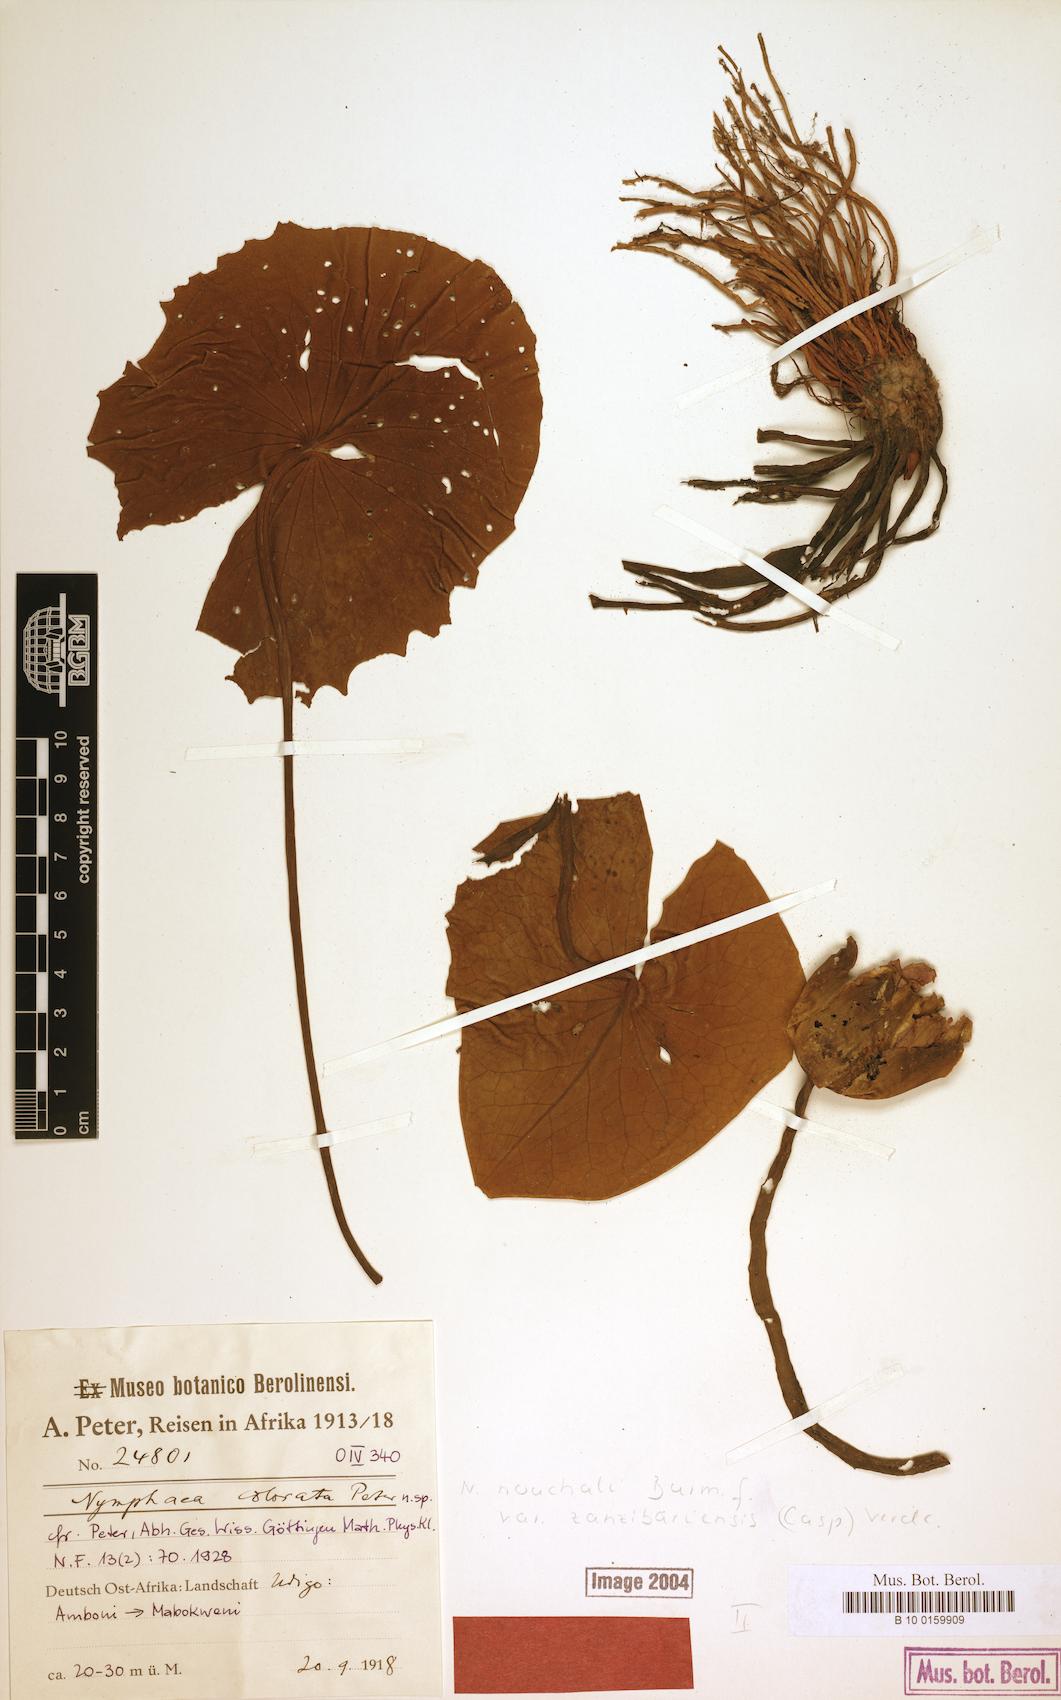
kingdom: Plantae
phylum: Tracheophyta
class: Magnoliopsida
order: Nymphaeales
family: Nymphaeaceae
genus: Nymphaea
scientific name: Nymphaea nouchali
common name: Blue lotus
